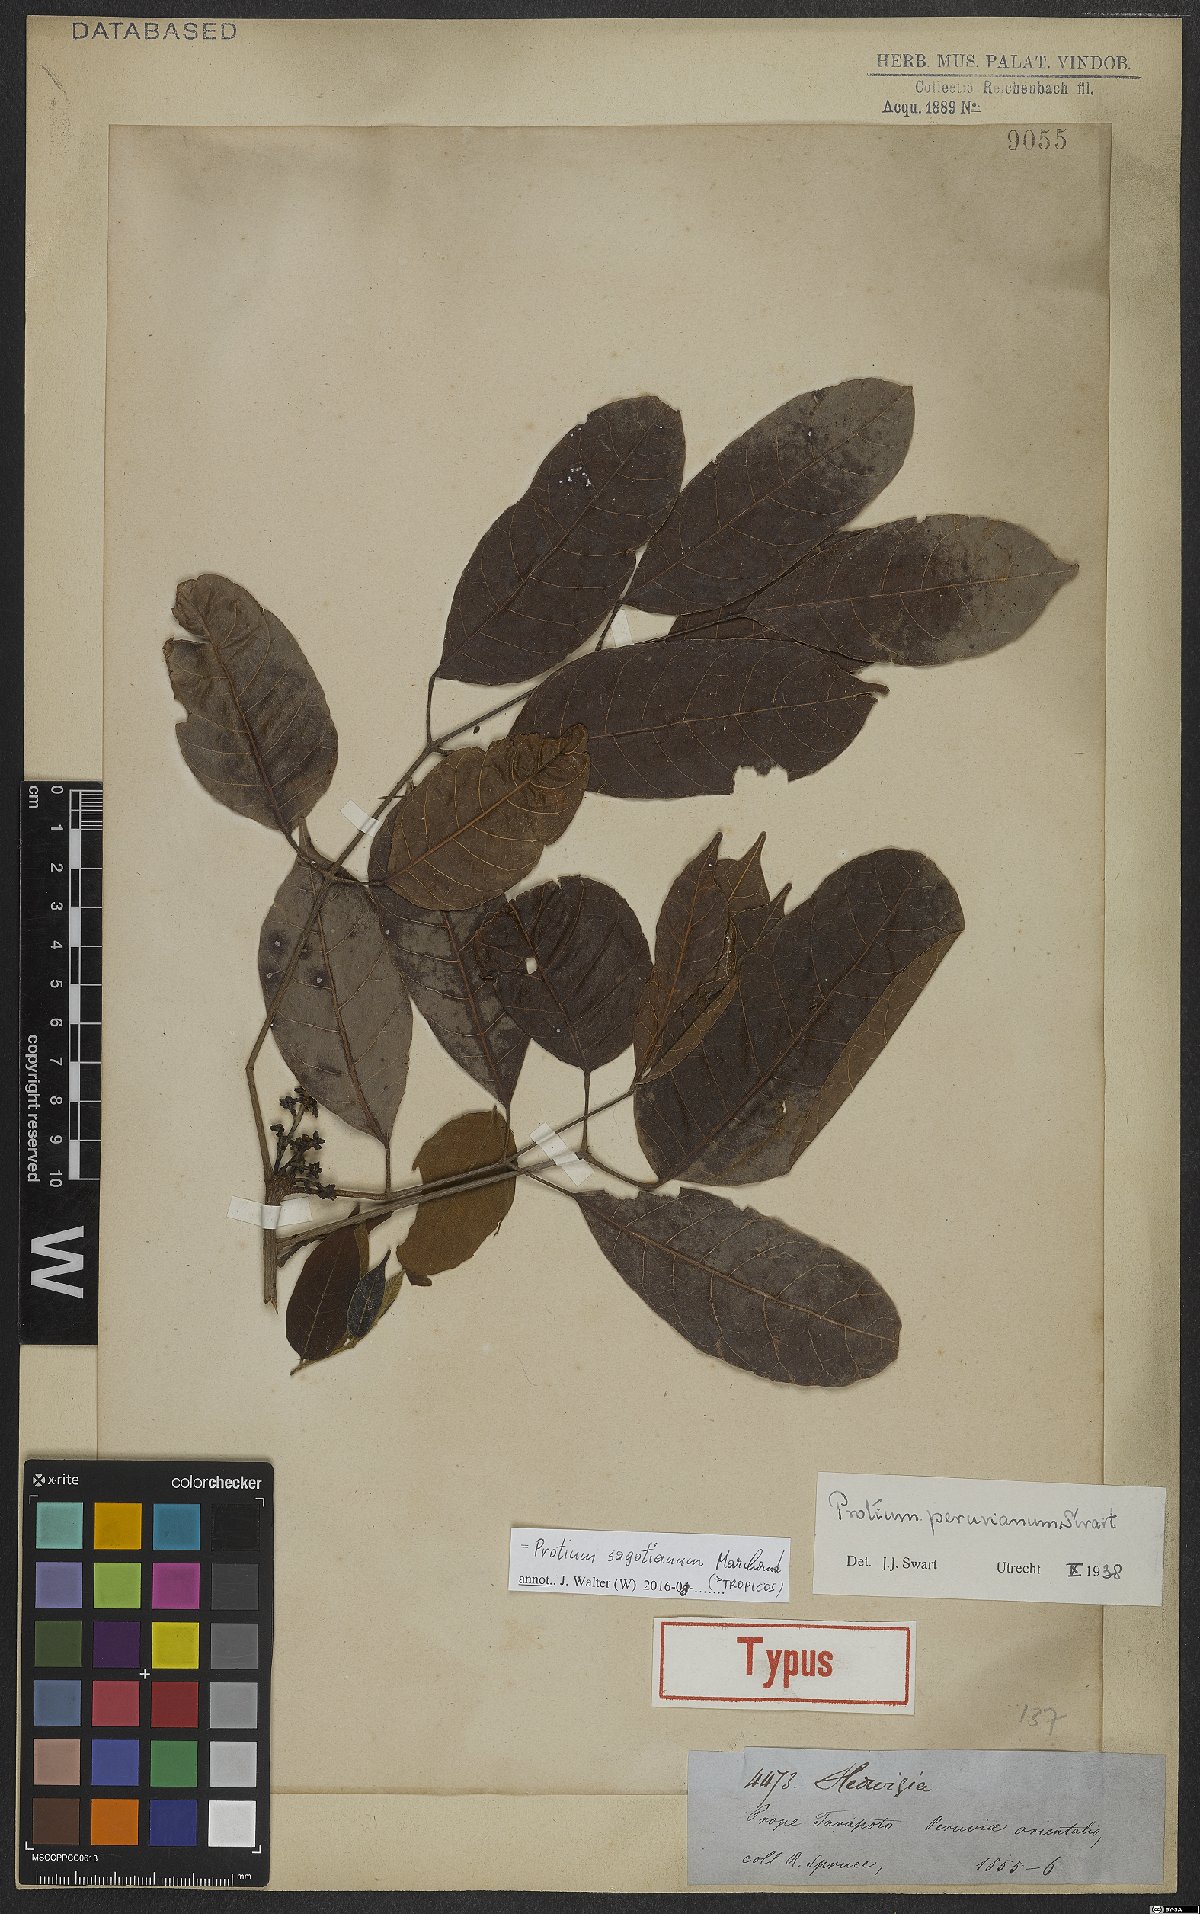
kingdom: Plantae
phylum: Tracheophyta
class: Magnoliopsida
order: Sapindales
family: Burseraceae
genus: Protium
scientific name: Protium sagotianum
